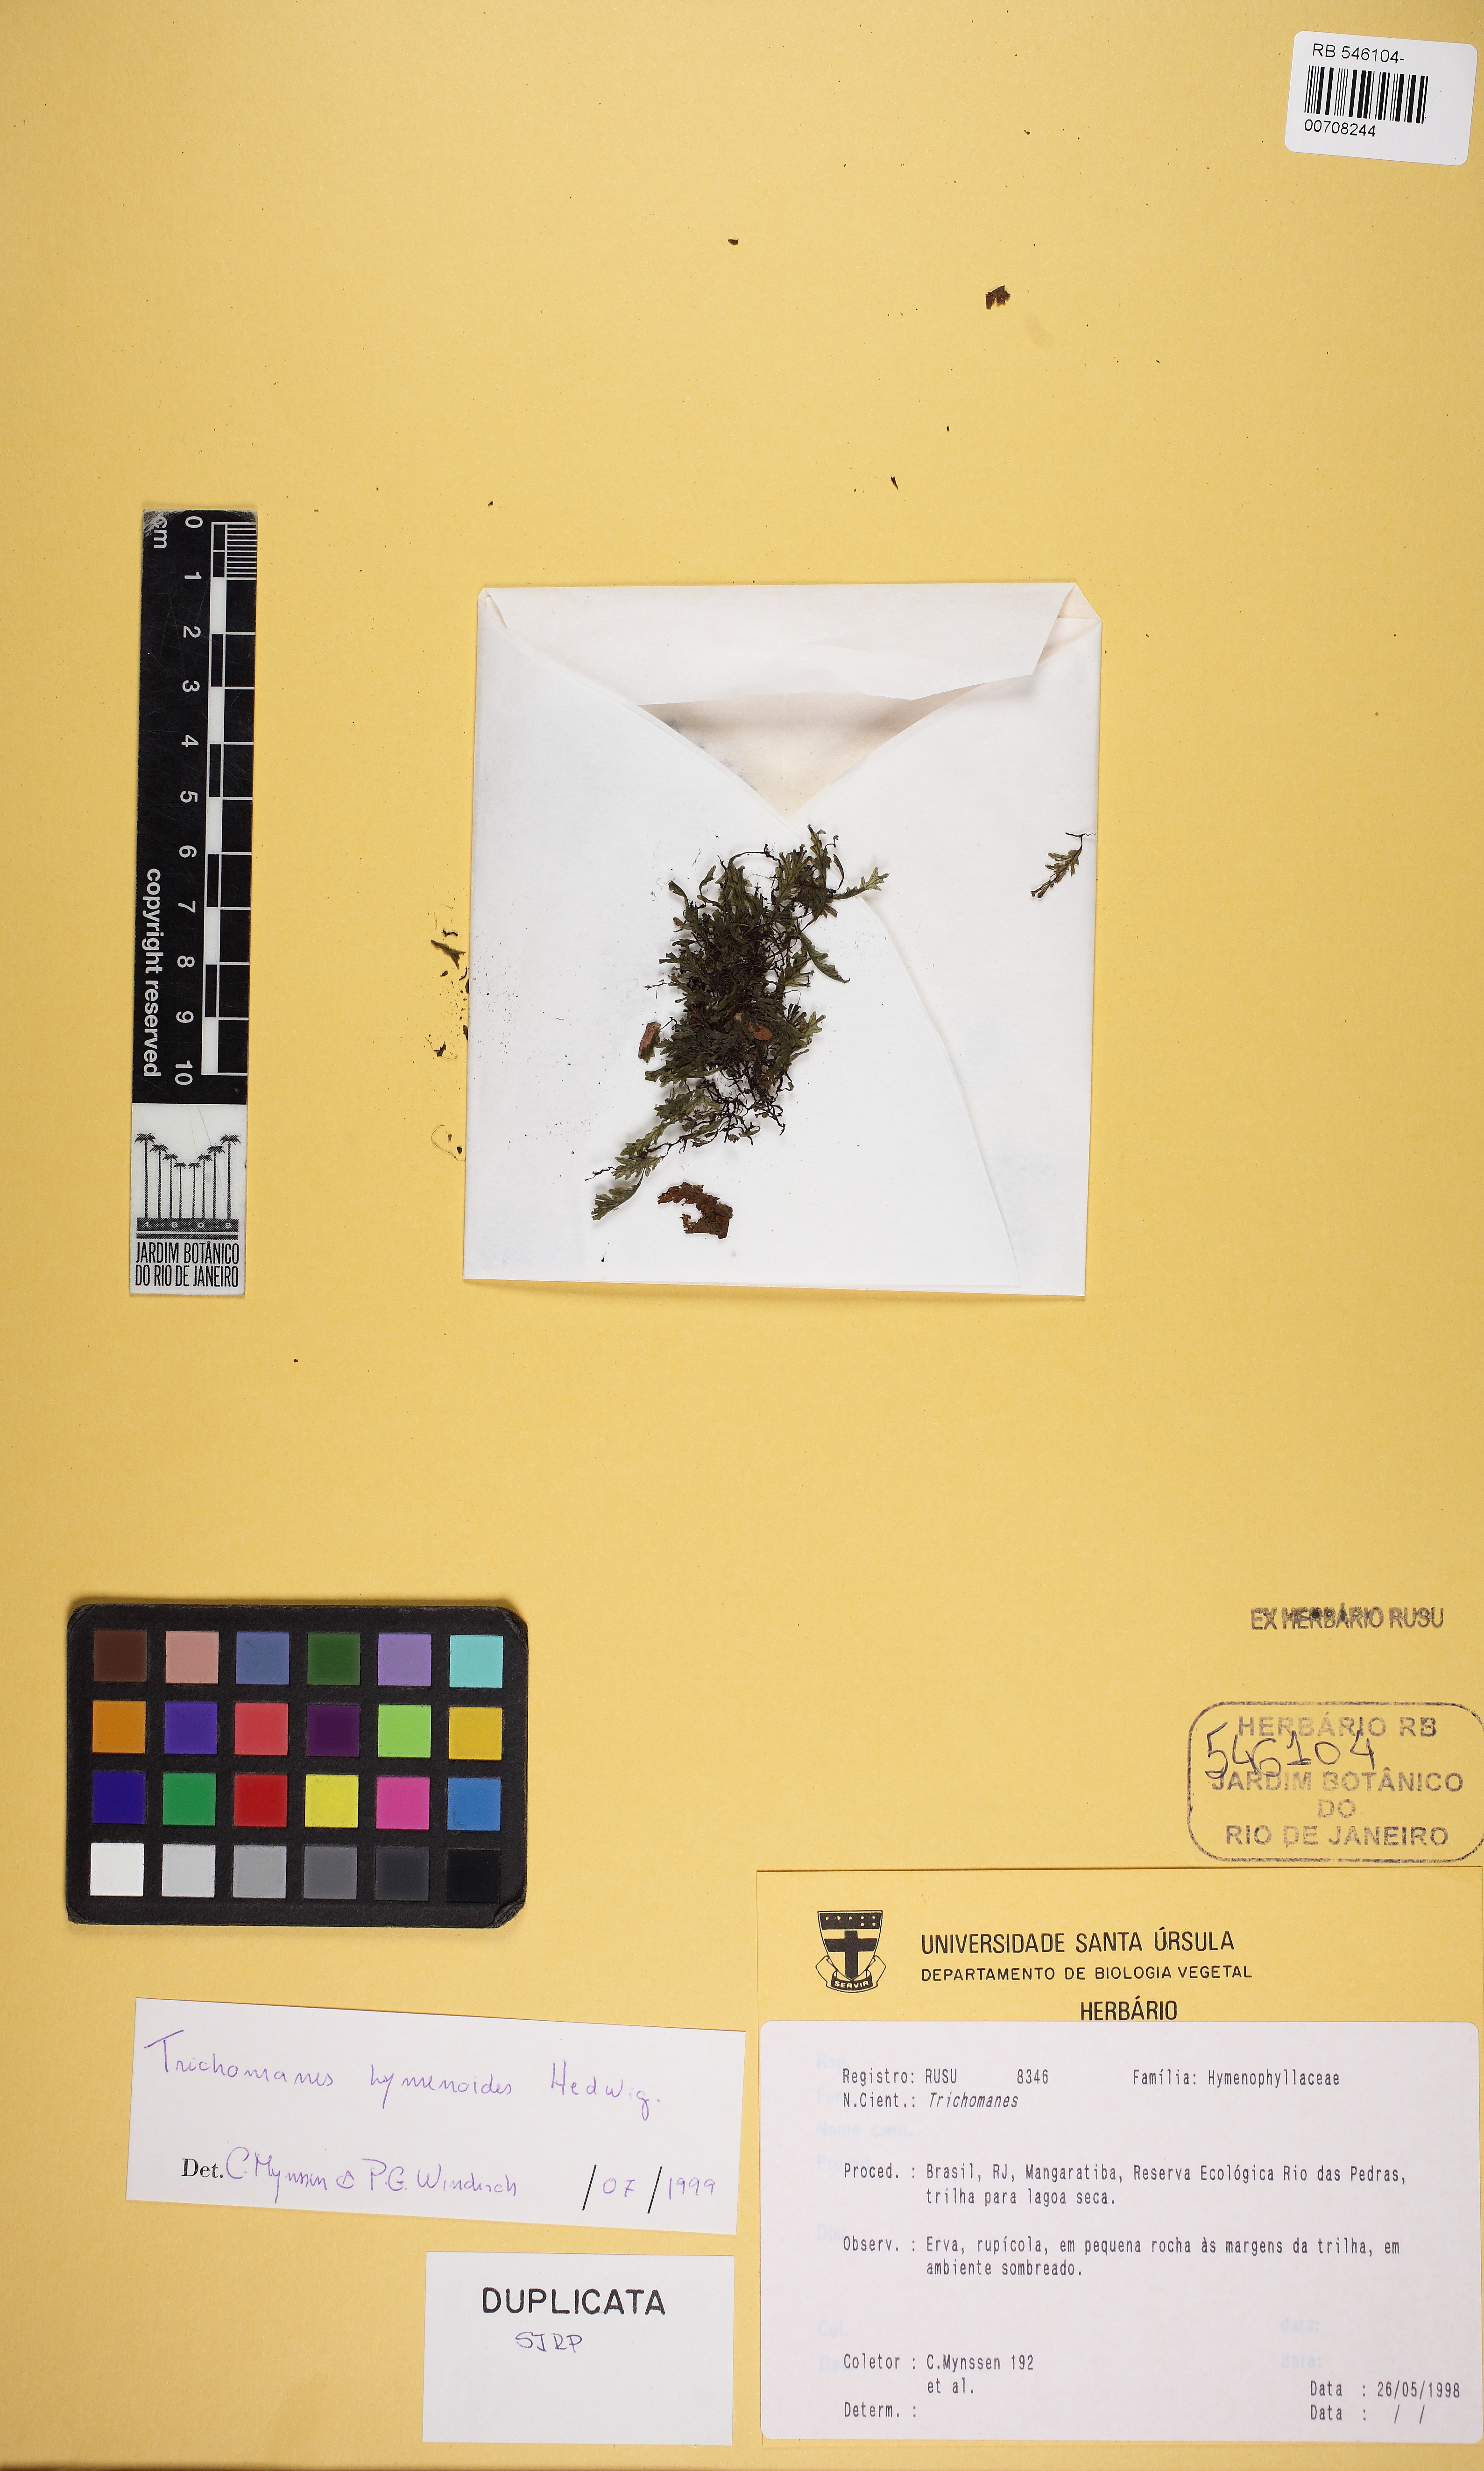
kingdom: Plantae
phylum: Tracheophyta
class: Polypodiopsida
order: Hymenophyllales
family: Hymenophyllaceae
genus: Didymoglossum
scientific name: Didymoglossum hymenoides
